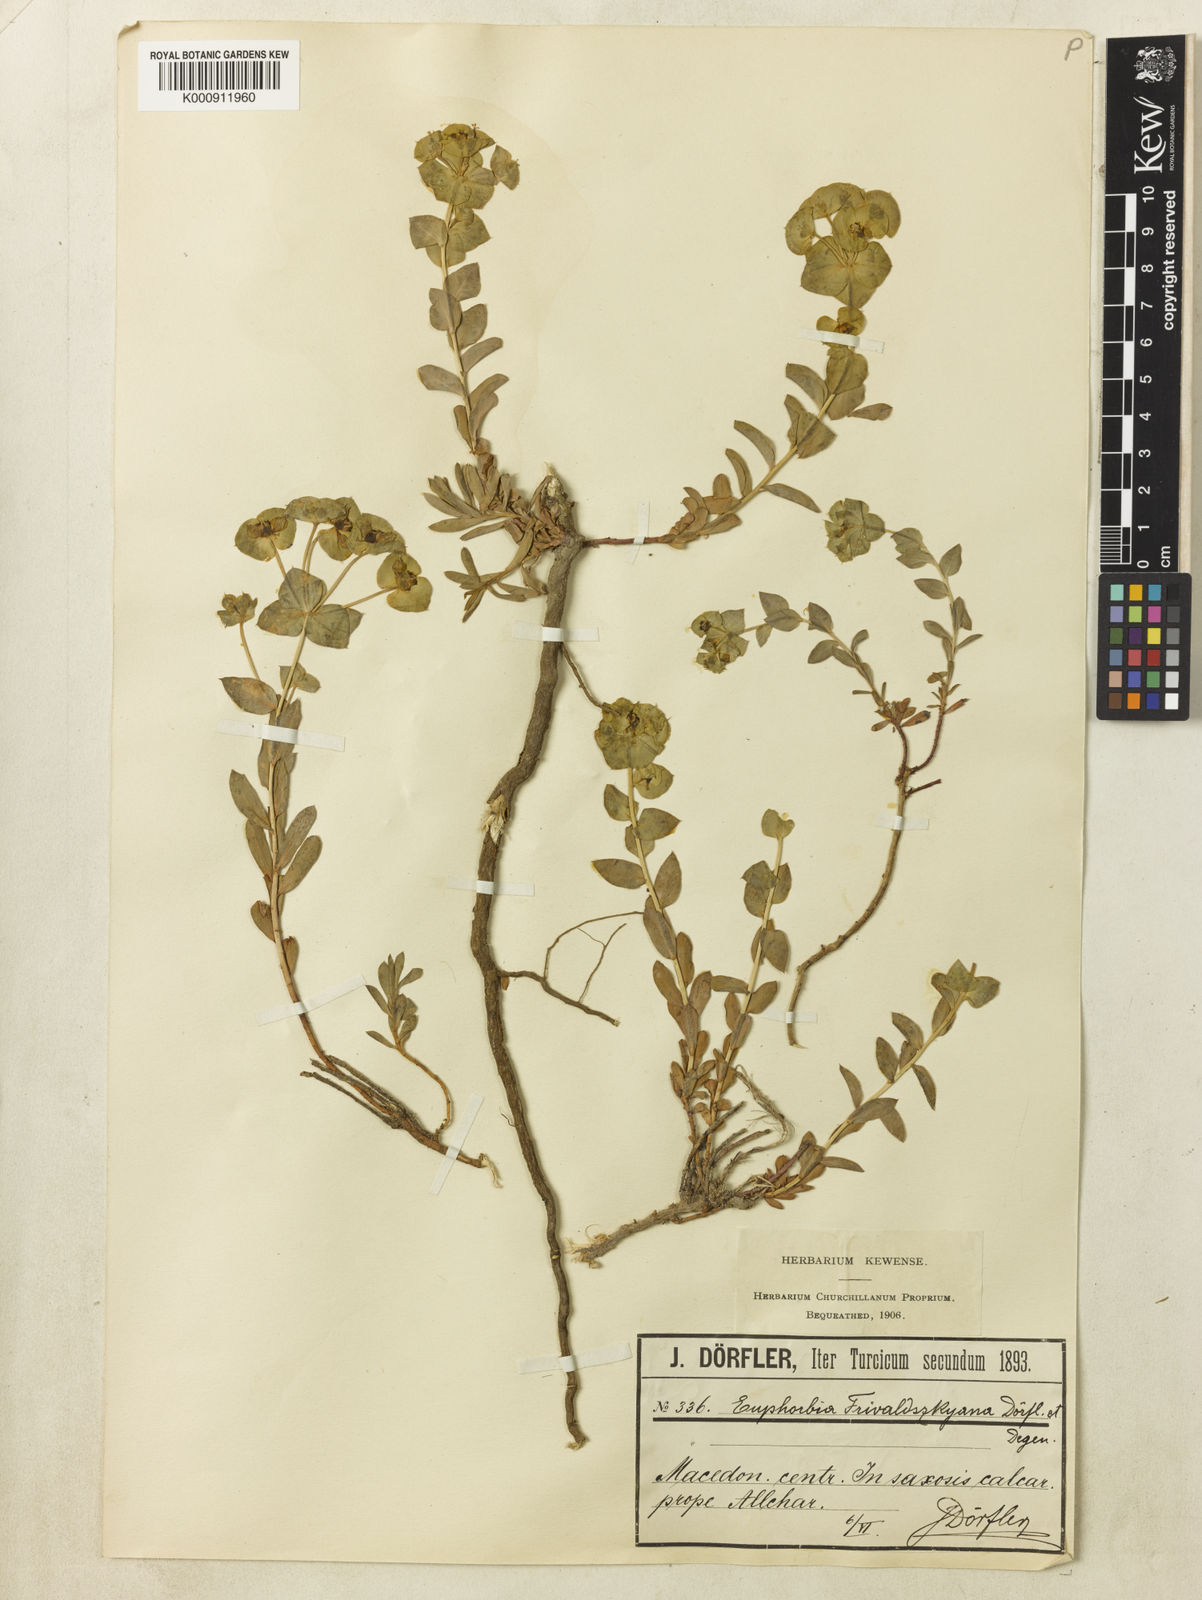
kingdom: Plantae
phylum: Tracheophyta
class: Magnoliopsida
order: Malpighiales
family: Euphorbiaceae
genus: Euphorbia
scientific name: Euphorbia
